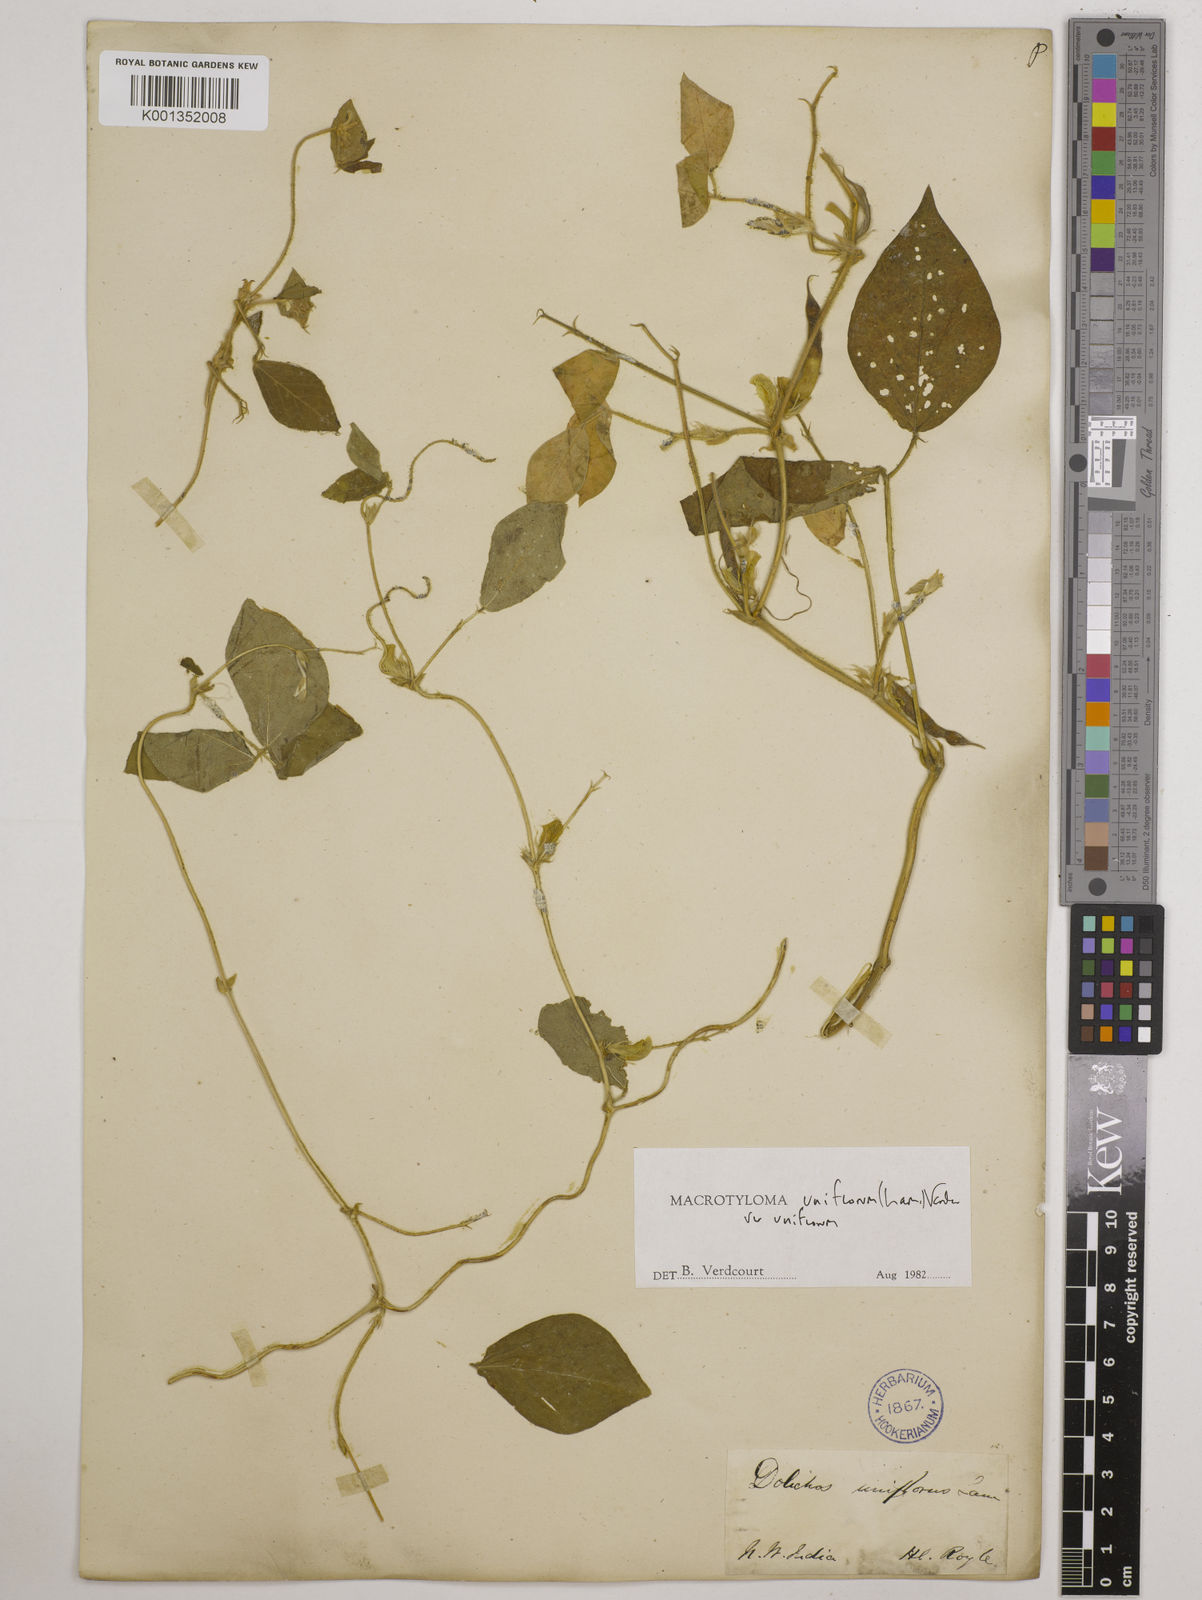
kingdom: Plantae
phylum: Tracheophyta
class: Magnoliopsida
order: Fabales
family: Fabaceae
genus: Macrotyloma
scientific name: Macrotyloma uniflorum
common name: Horse gram
